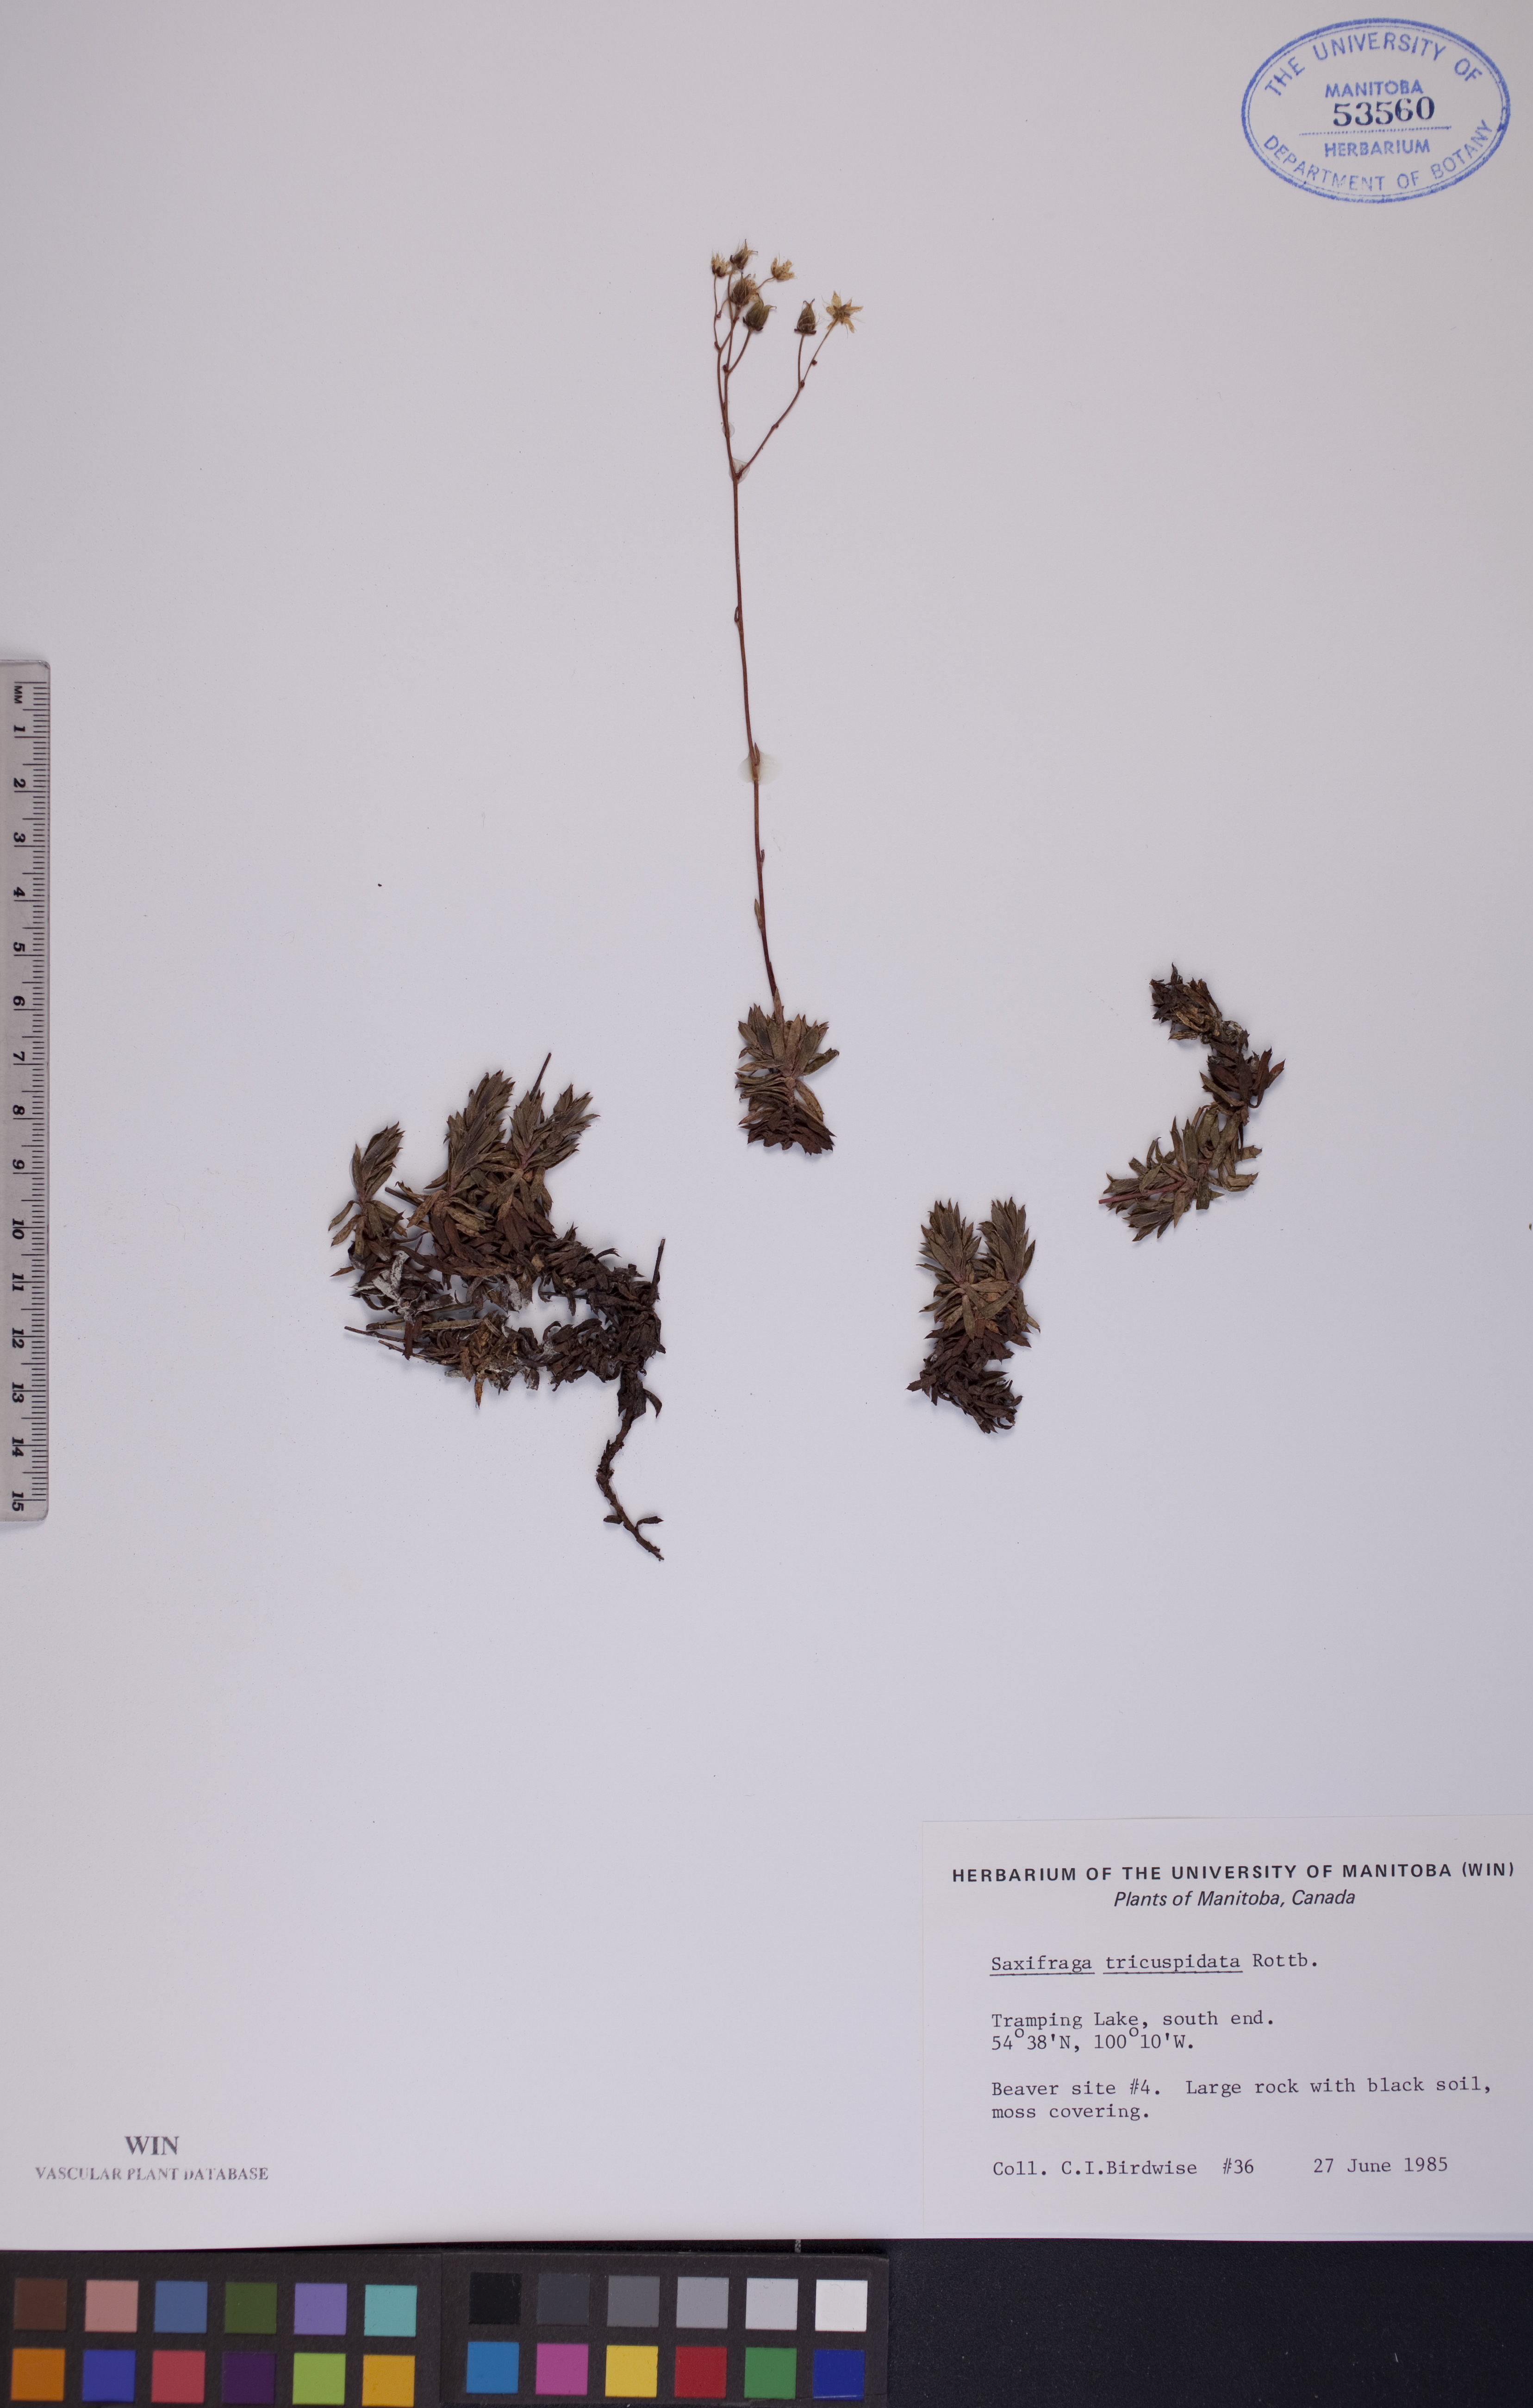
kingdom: Plantae
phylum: Tracheophyta
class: Magnoliopsida
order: Saxifragales
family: Saxifragaceae
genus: Saxifraga
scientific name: Saxifraga tricuspidata
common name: Prickly saxifrage
